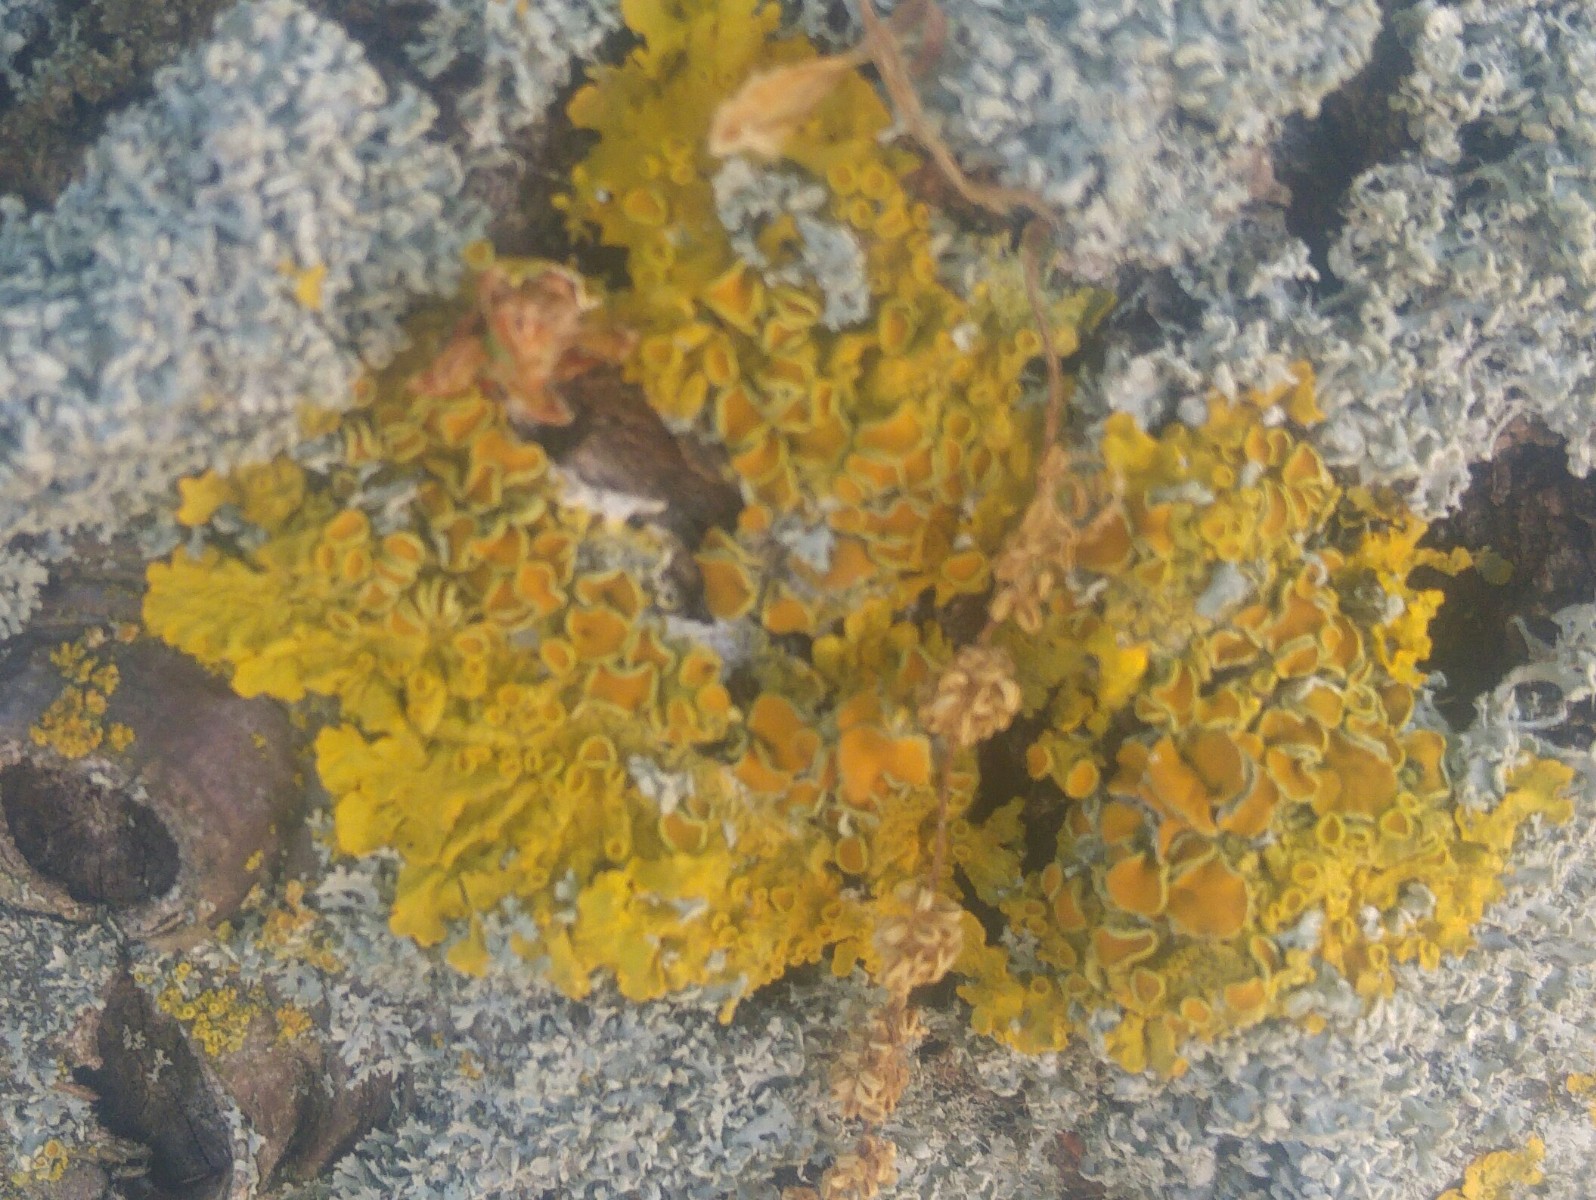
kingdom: Fungi
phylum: Ascomycota
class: Lecanoromycetes
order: Teloschistales
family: Teloschistaceae
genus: Xanthoria
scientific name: Xanthoria parietina
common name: almindelig væggelav
